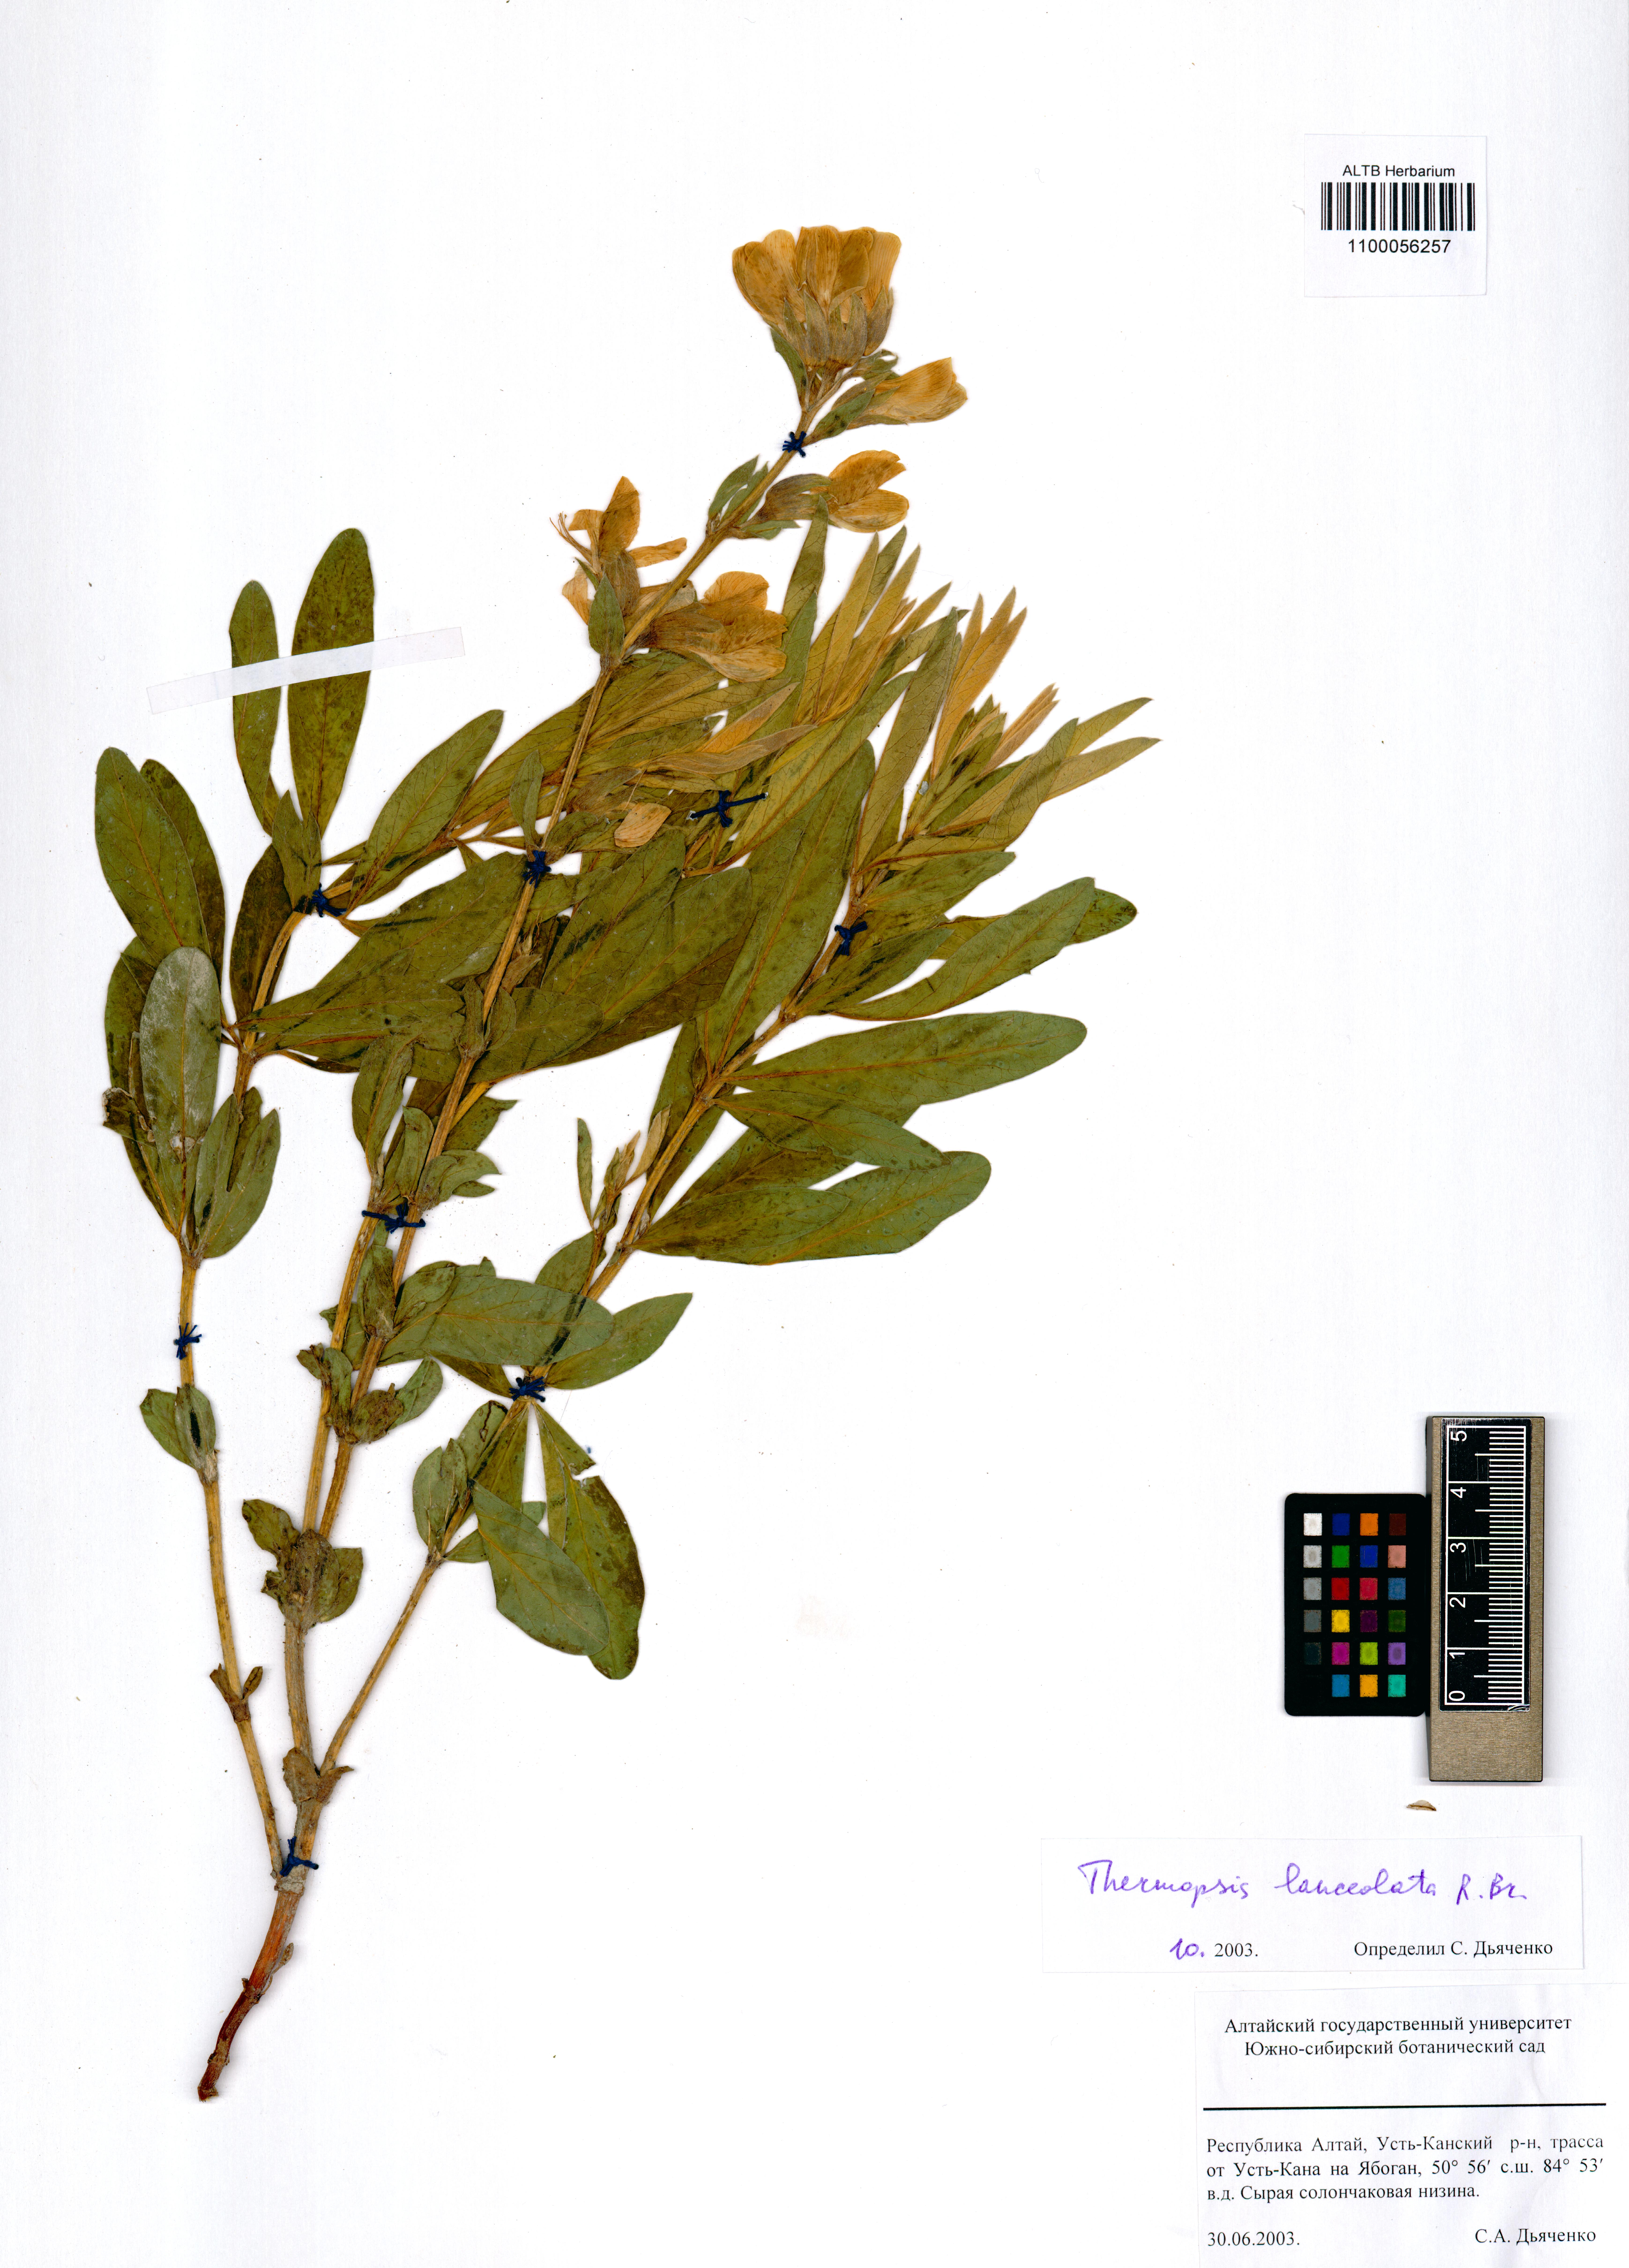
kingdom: Plantae
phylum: Tracheophyta
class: Magnoliopsida
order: Fabales
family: Fabaceae
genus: Thermopsis
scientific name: Thermopsis lanceolata
